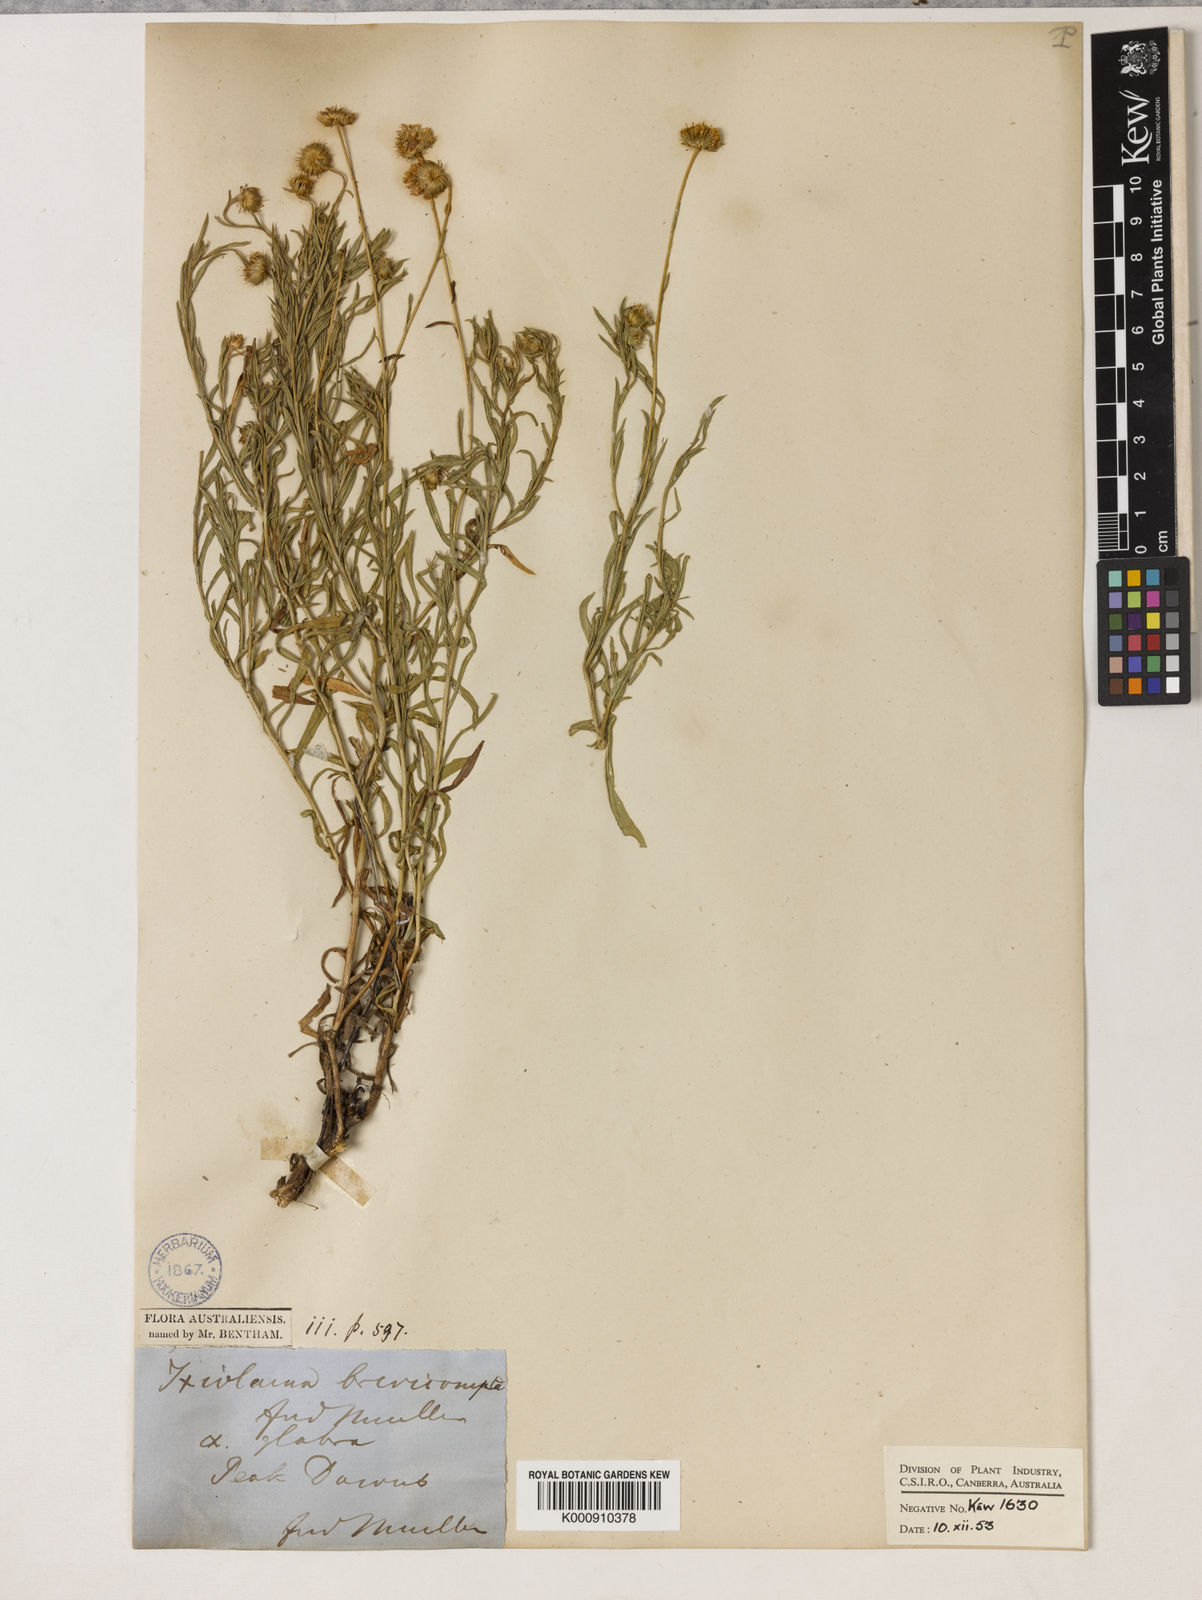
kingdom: Plantae
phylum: Tracheophyta
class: Magnoliopsida
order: Asterales
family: Asteraceae
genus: Leiocarpa
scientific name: Leiocarpa brevicompta
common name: Plain plover daisy
